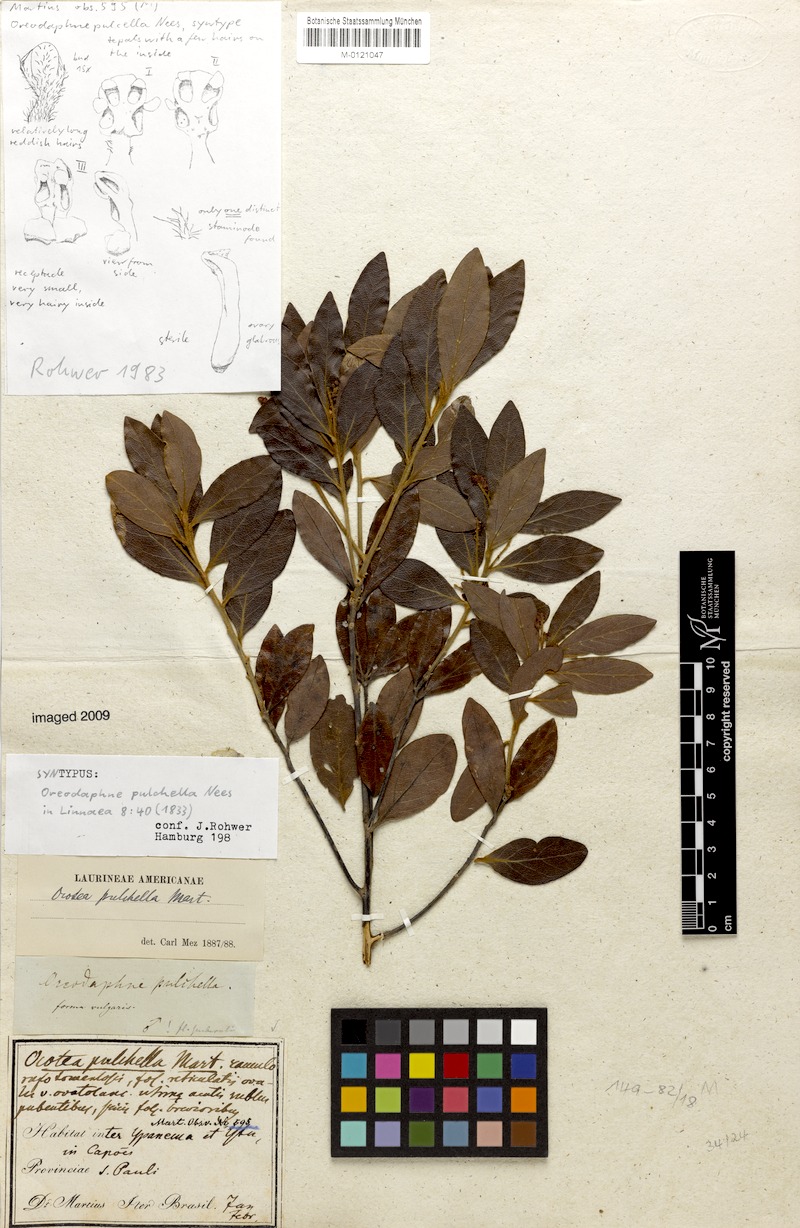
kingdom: Plantae
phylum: Tracheophyta
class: Magnoliopsida
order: Laurales
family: Lauraceae
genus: Mespilodaphne
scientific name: Mespilodaphne pulchella
